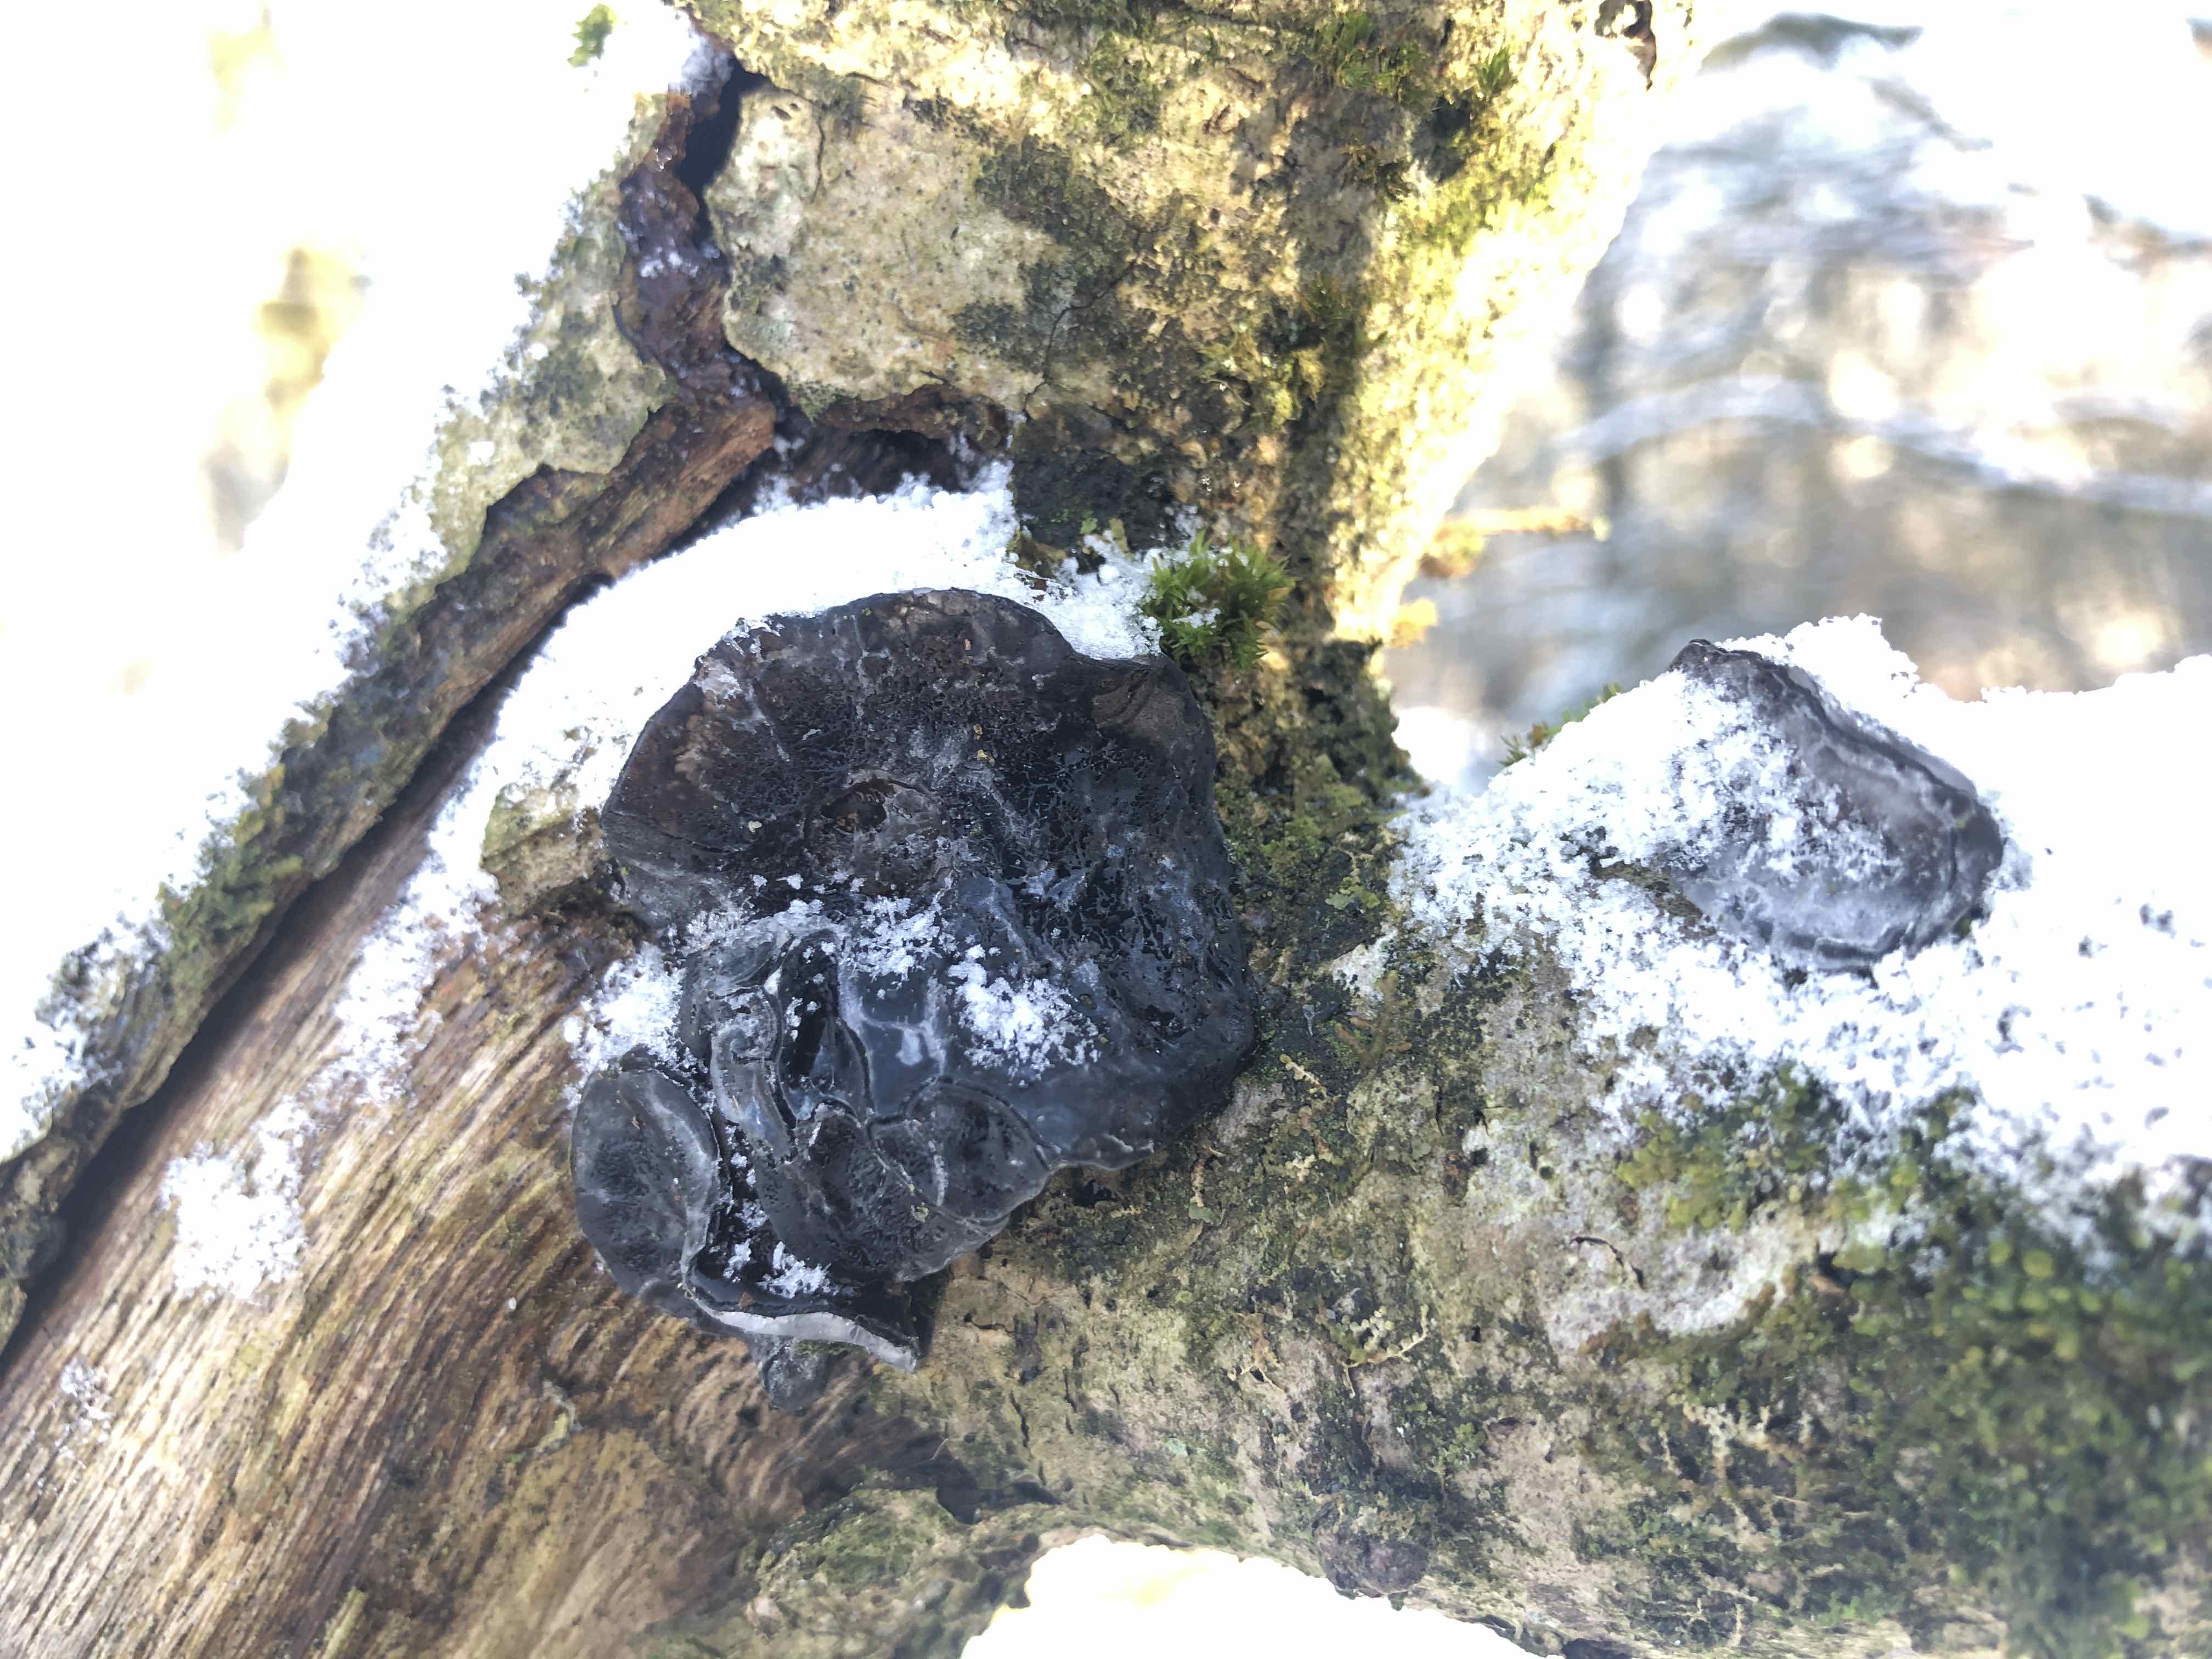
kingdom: Fungi
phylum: Basidiomycota
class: Agaricomycetes
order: Auriculariales
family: Auriculariaceae
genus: Exidia
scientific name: Exidia glandulosa
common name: ege-bævretop
